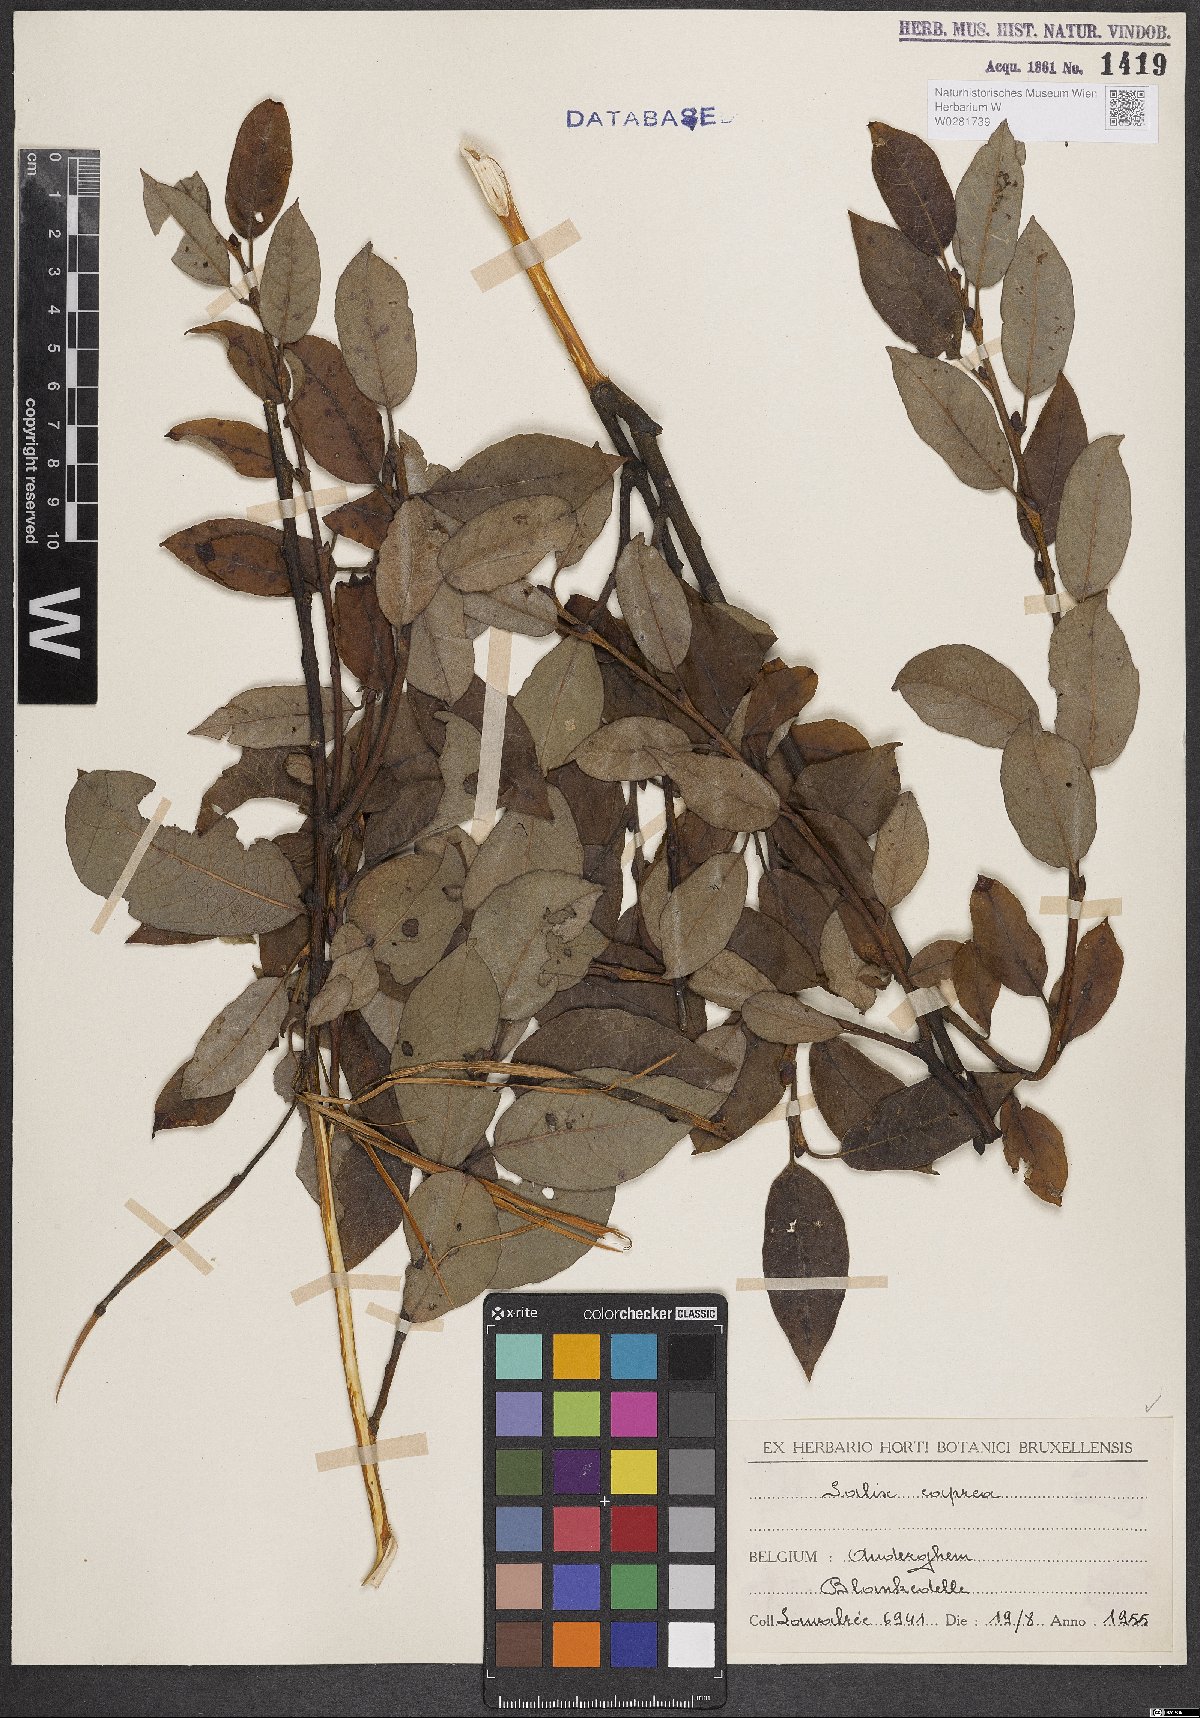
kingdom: Plantae
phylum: Tracheophyta
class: Magnoliopsida
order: Malpighiales
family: Salicaceae
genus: Salix
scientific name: Salix caprea
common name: Goat willow
